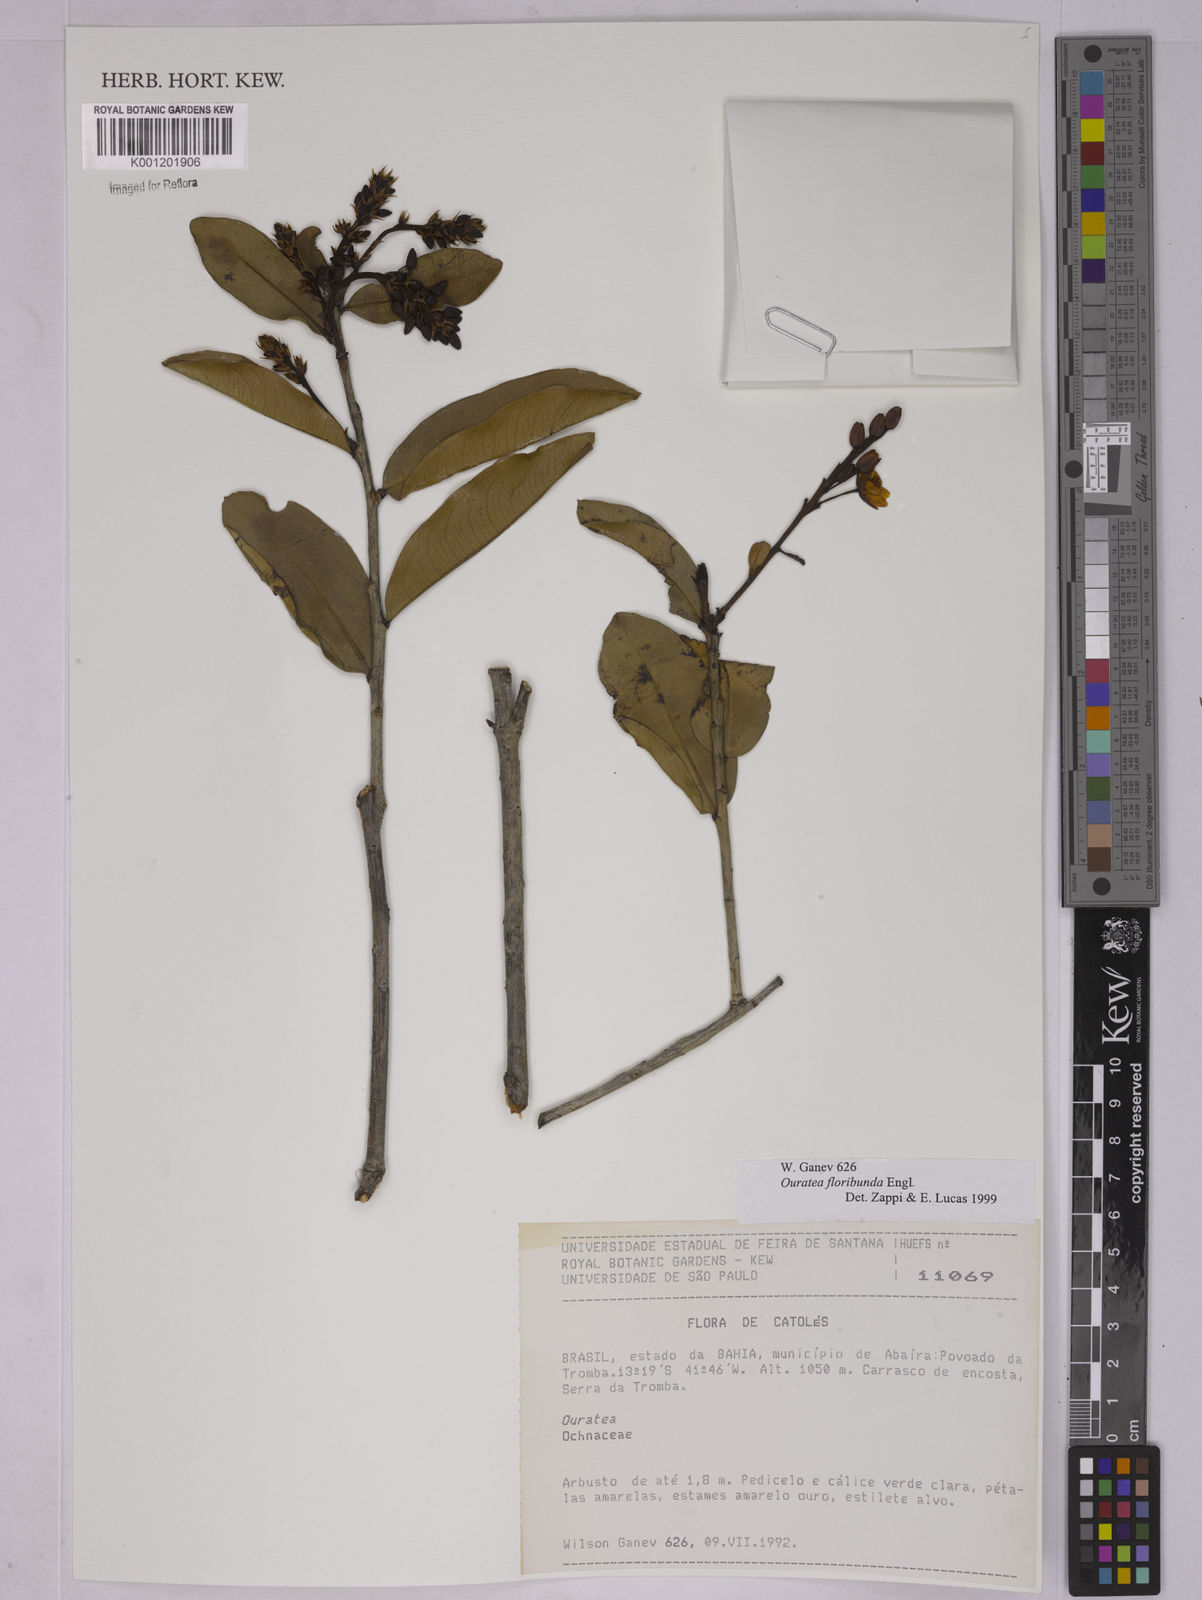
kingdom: Plantae
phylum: Tracheophyta
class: Magnoliopsida
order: Malpighiales
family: Ochnaceae
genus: Ouratea
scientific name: Ouratea floribunda
